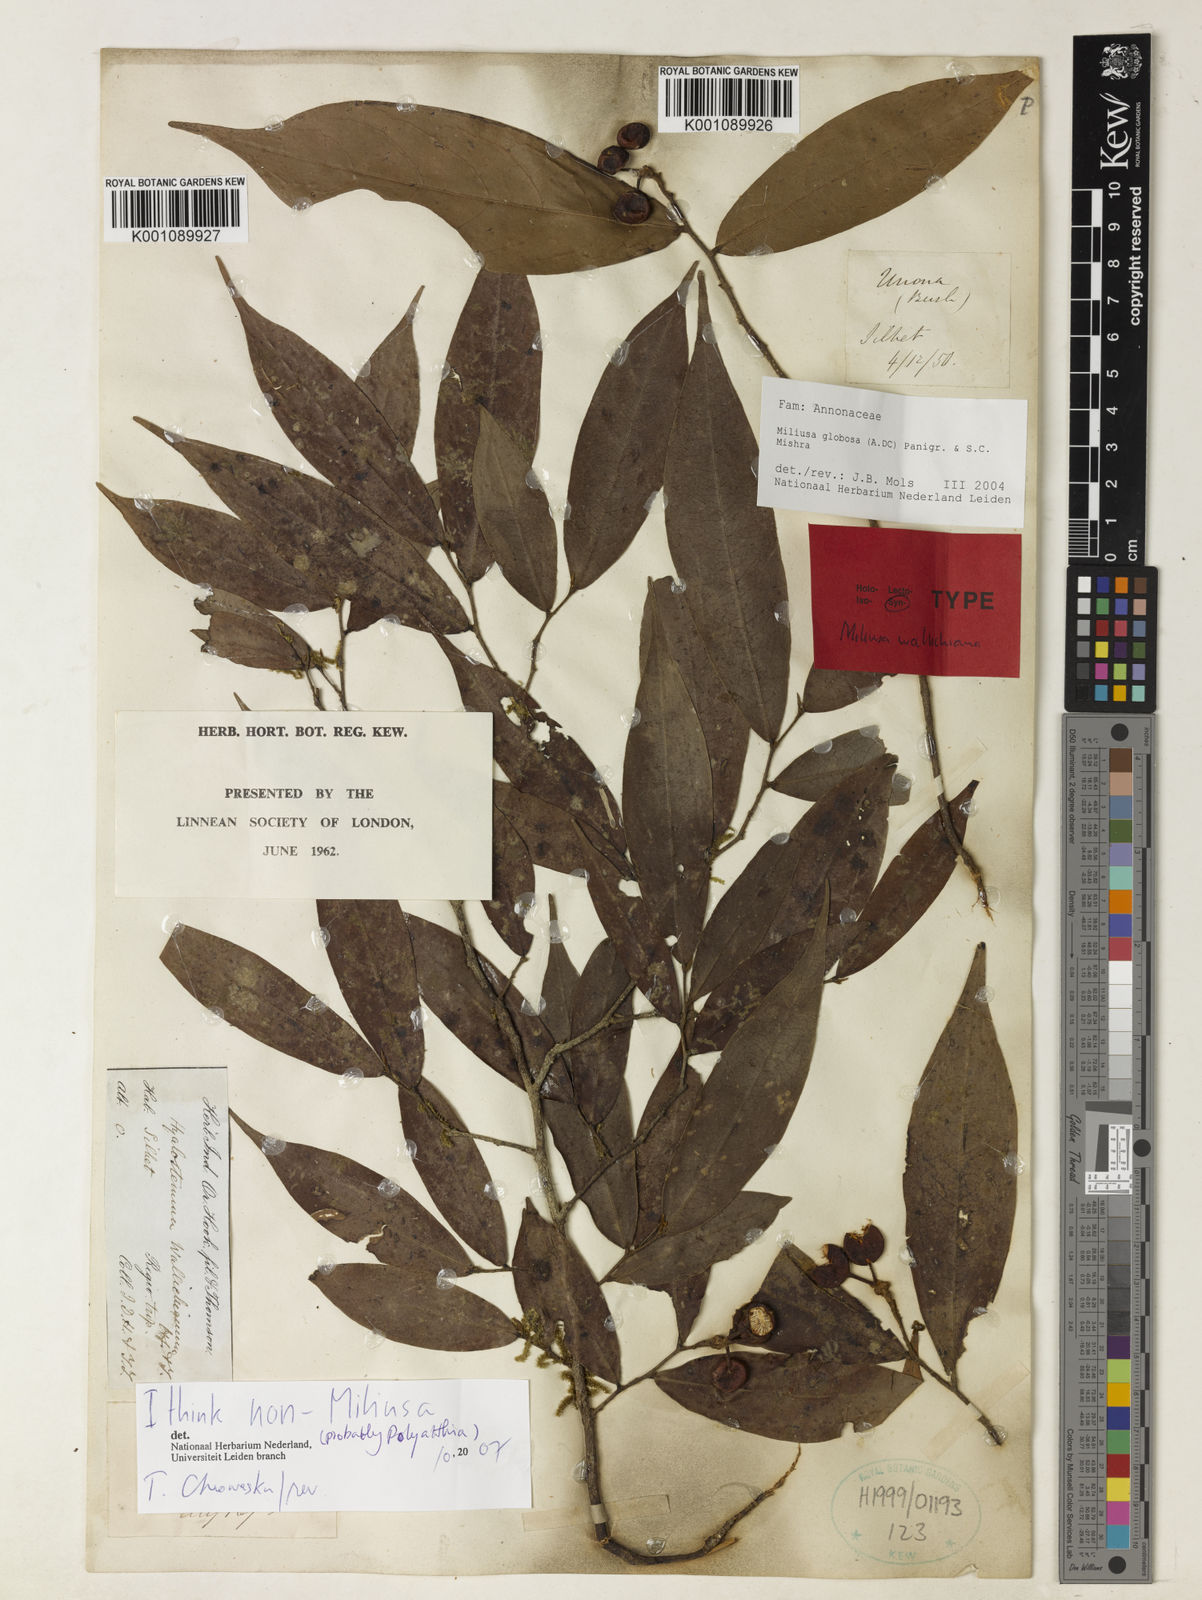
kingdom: Plantae
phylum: Tracheophyta
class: Magnoliopsida
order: Magnoliales
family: Annonaceae
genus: Miliusa
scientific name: Miliusa globosa
